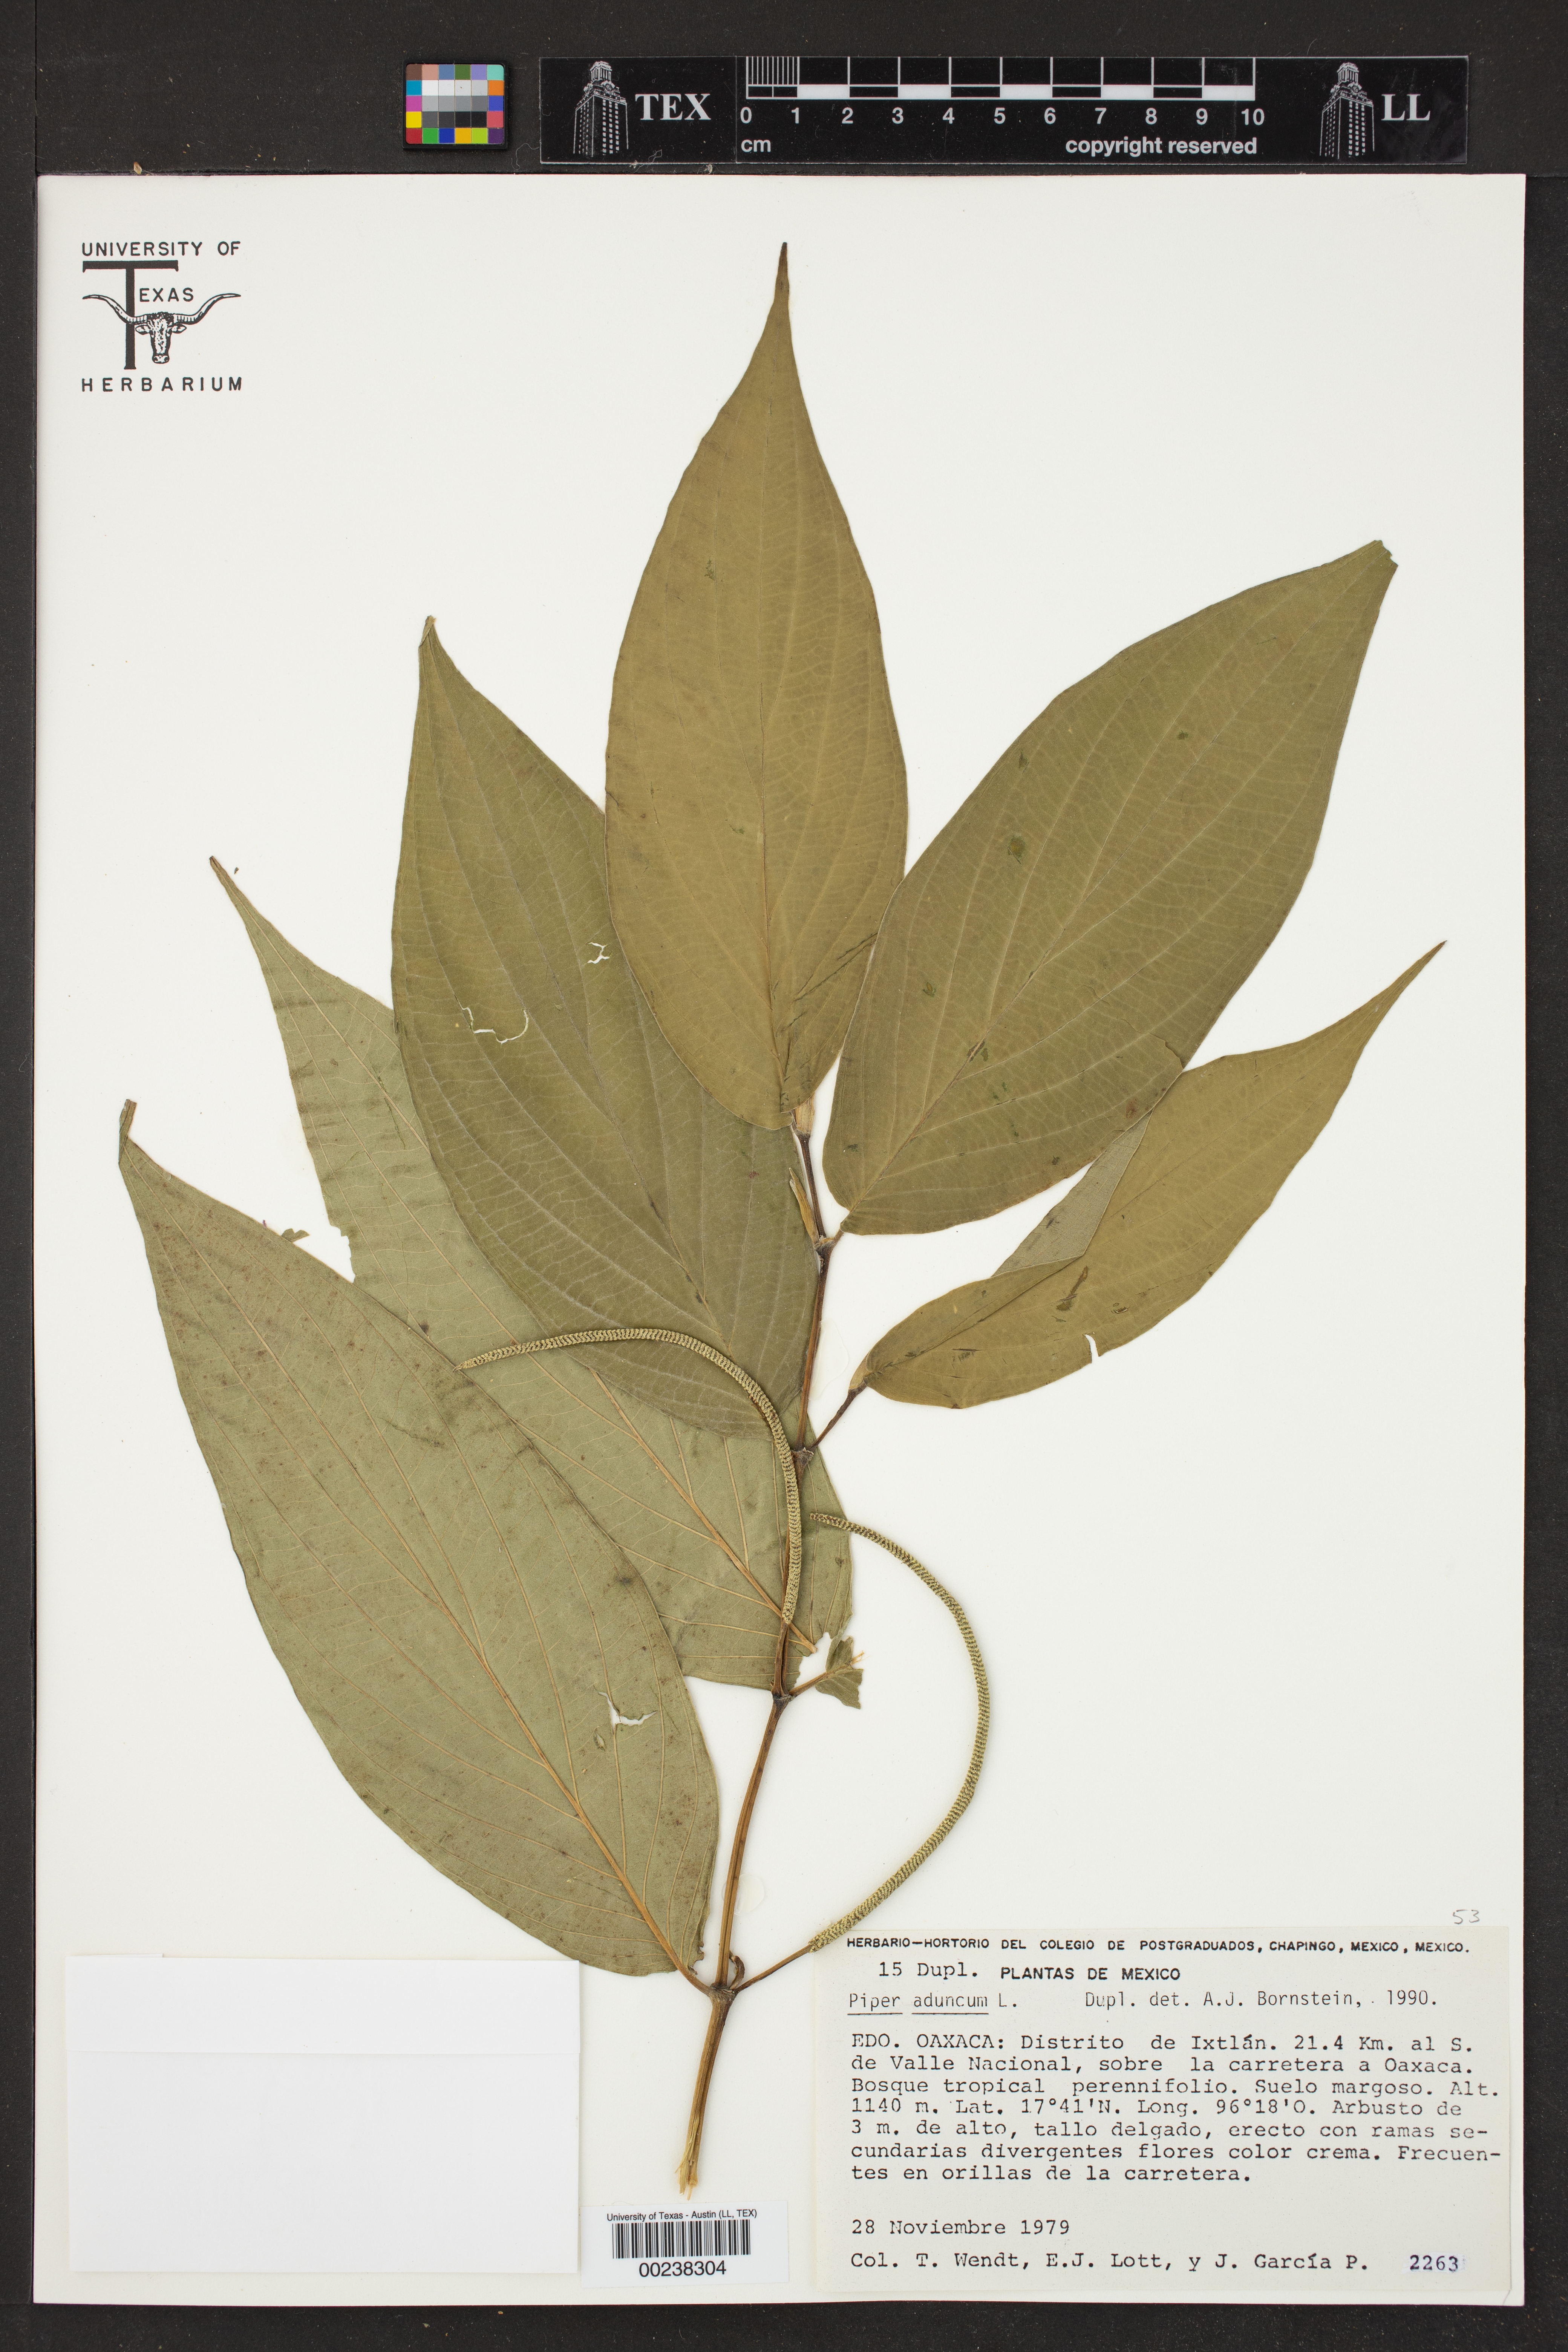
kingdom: Plantae
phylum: Tracheophyta
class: Magnoliopsida
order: Piperales
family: Piperaceae
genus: Piper
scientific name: Piper aduncum
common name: Spiked pepper
